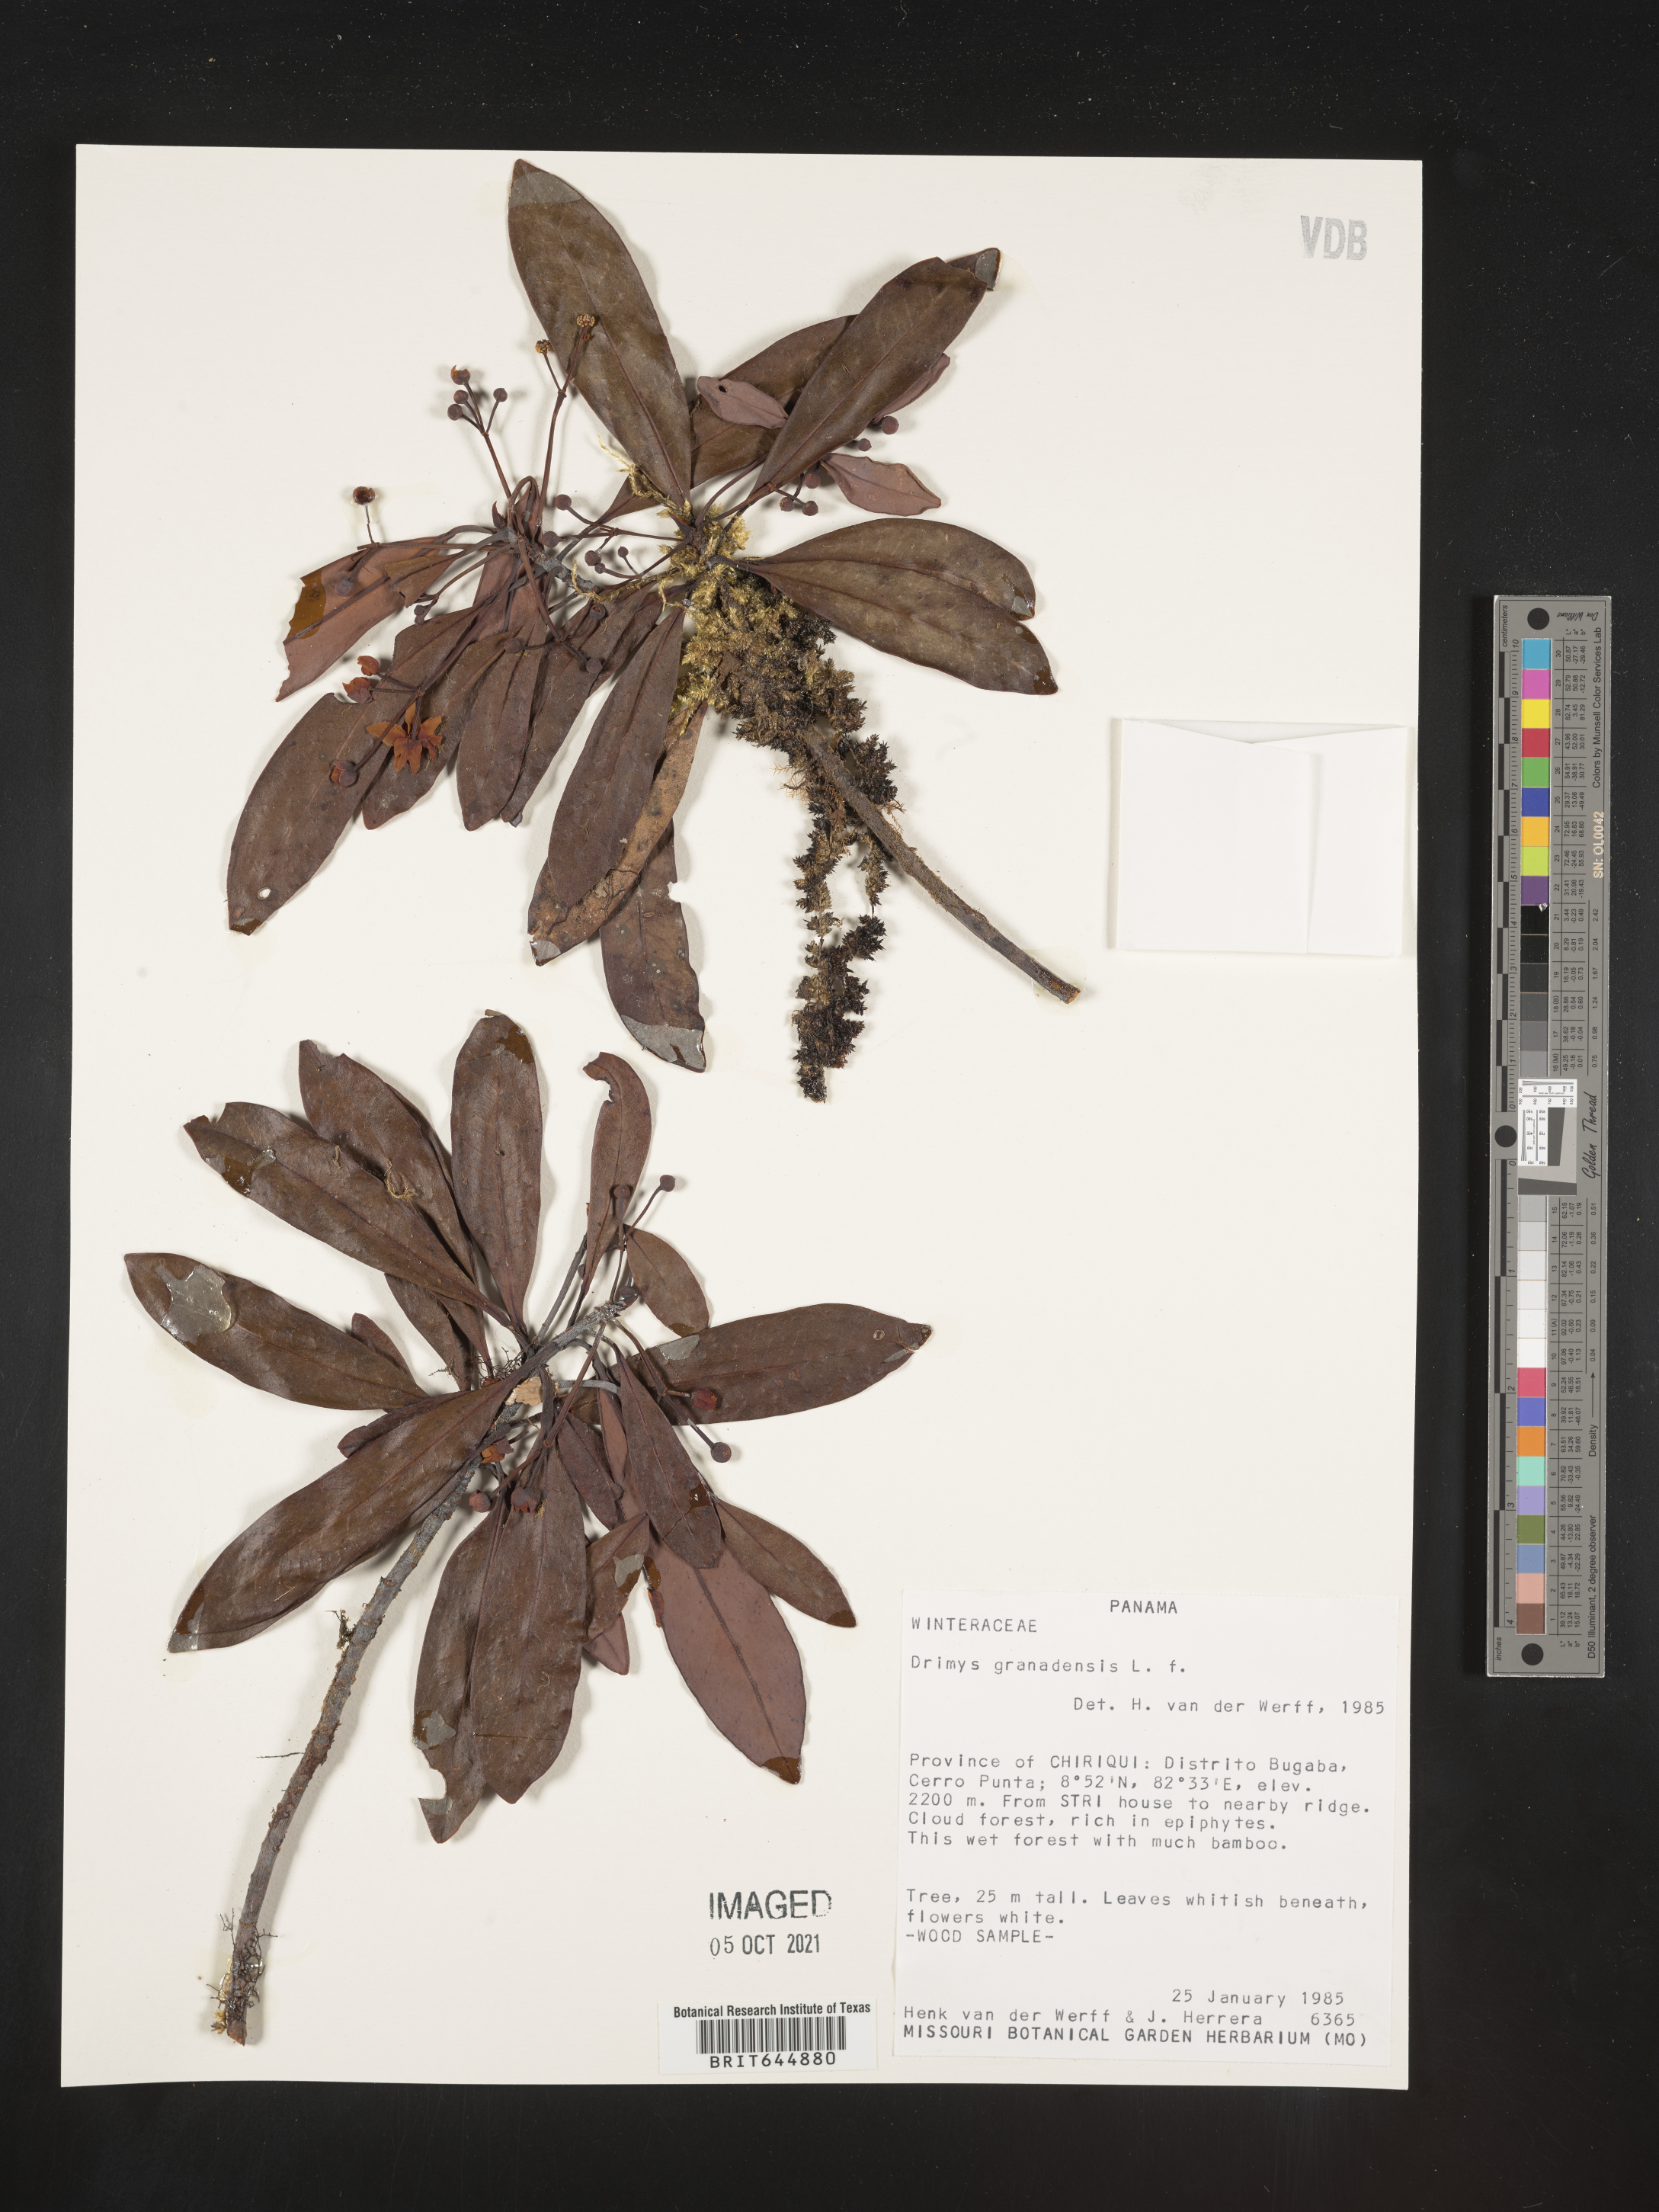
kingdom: Plantae
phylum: Tracheophyta
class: Magnoliopsida
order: Canellales
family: Winteraceae
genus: Drimys
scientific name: Drimys
